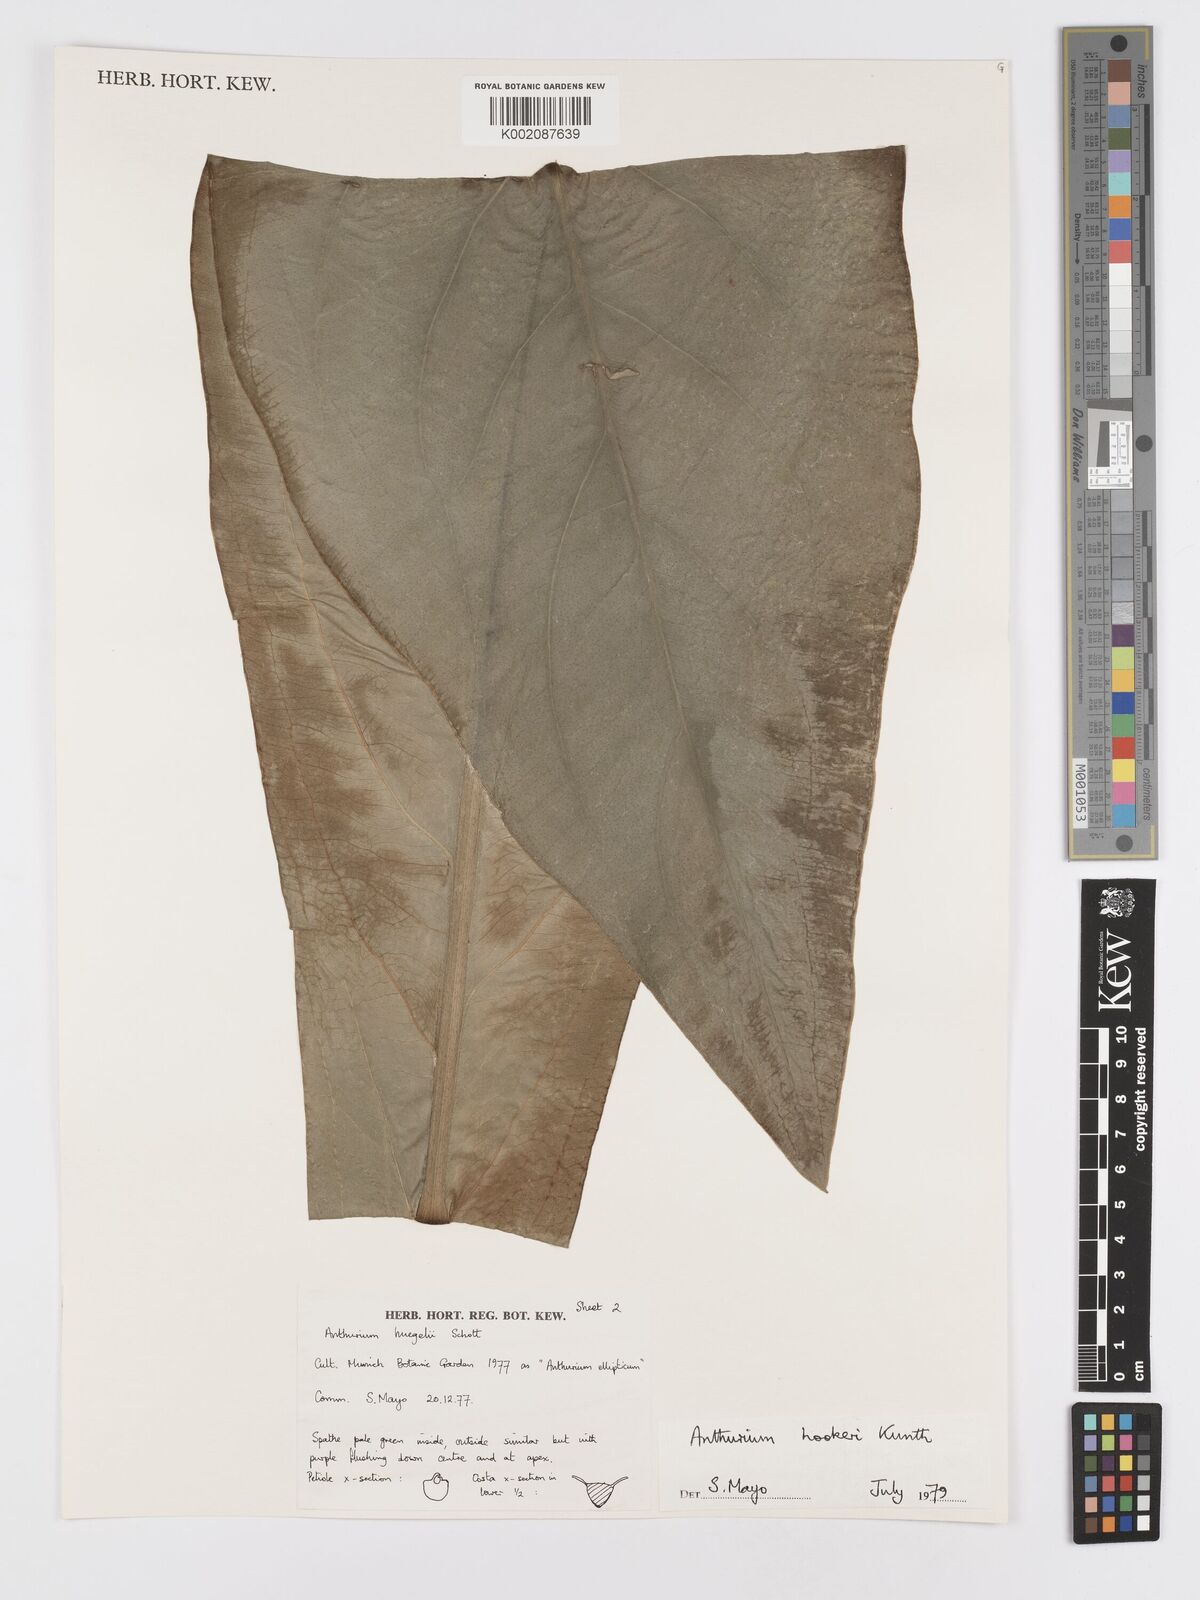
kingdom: Plantae
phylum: Tracheophyta
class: Liliopsida
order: Alismatales
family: Araceae
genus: Anthurium
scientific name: Anthurium hookeri
